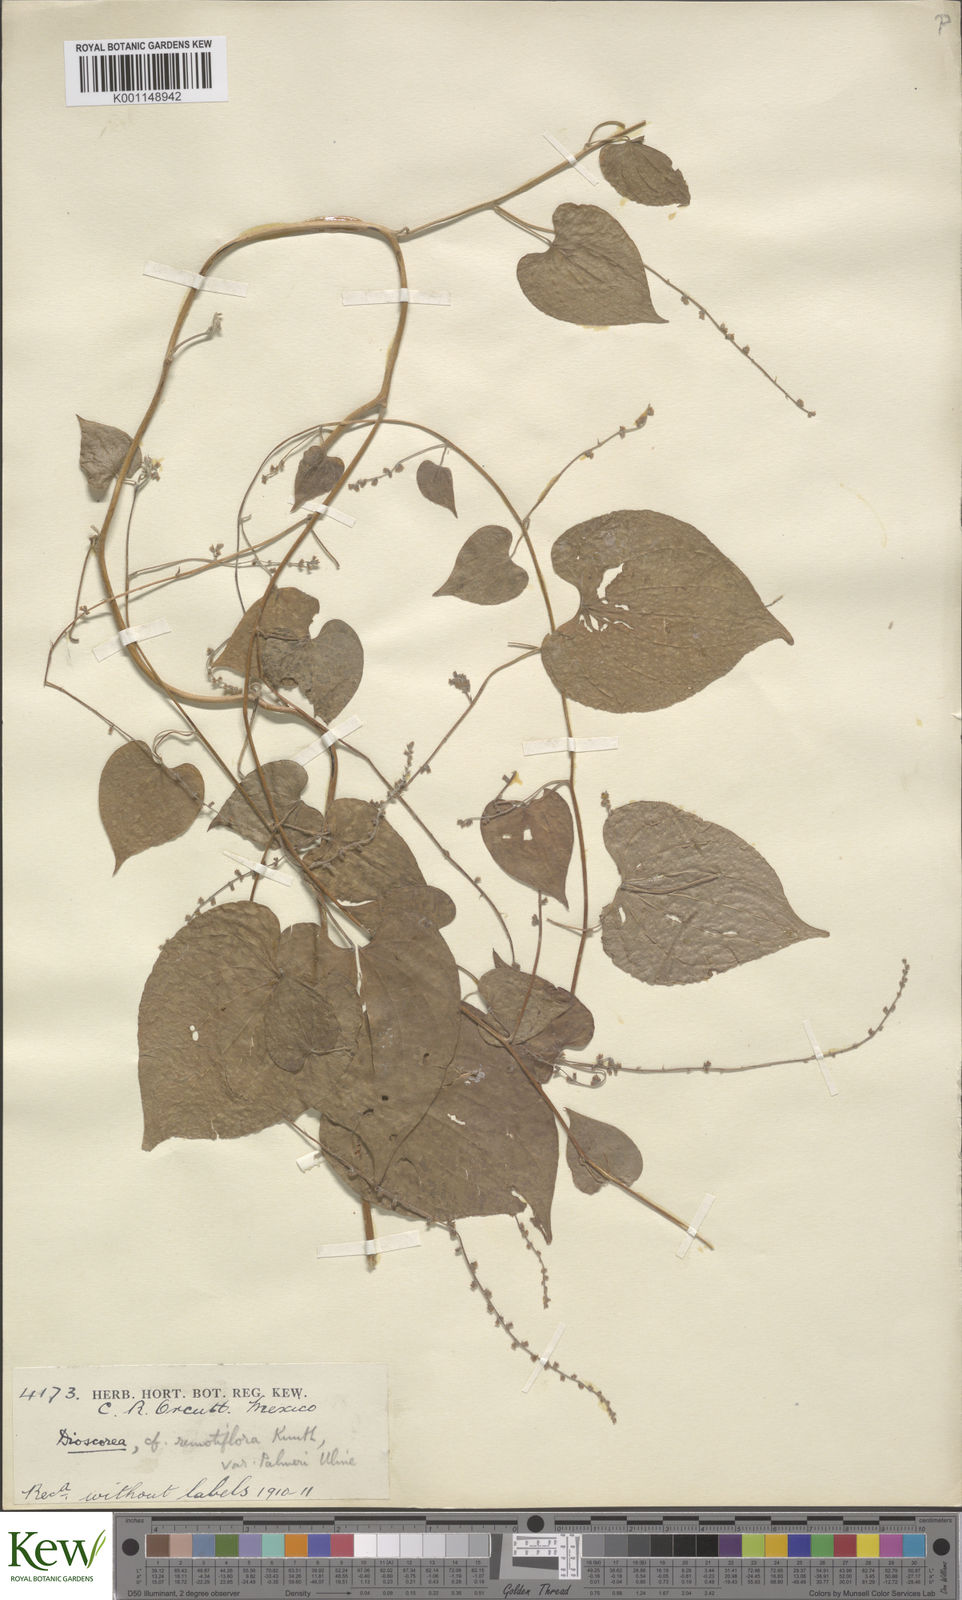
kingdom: Plantae
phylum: Tracheophyta
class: Liliopsida
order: Dioscoreales
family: Dioscoreaceae
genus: Dioscorea
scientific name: Dioscorea remotiflora
